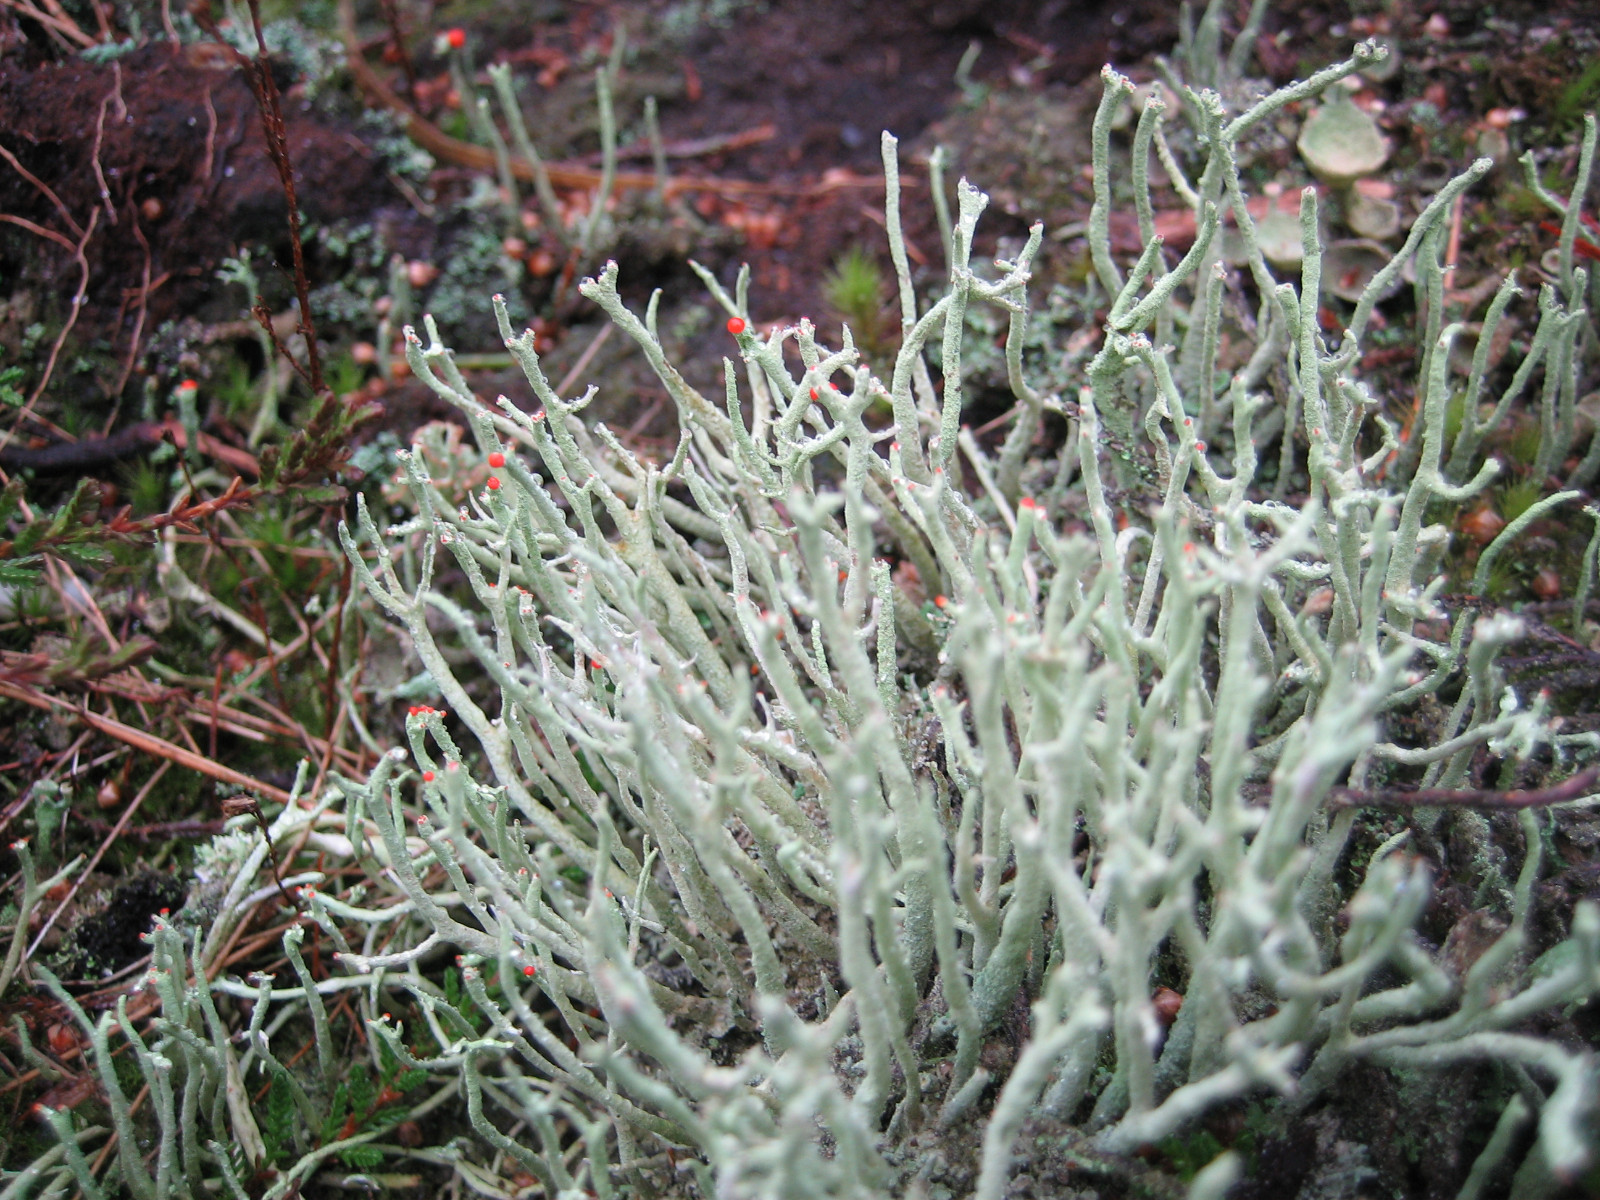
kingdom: Fungi
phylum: Ascomycota
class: Lecanoromycetes
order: Lecanorales
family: Cladoniaceae
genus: Cladonia
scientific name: Cladonia macilenta
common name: indsvunden bægerlav
